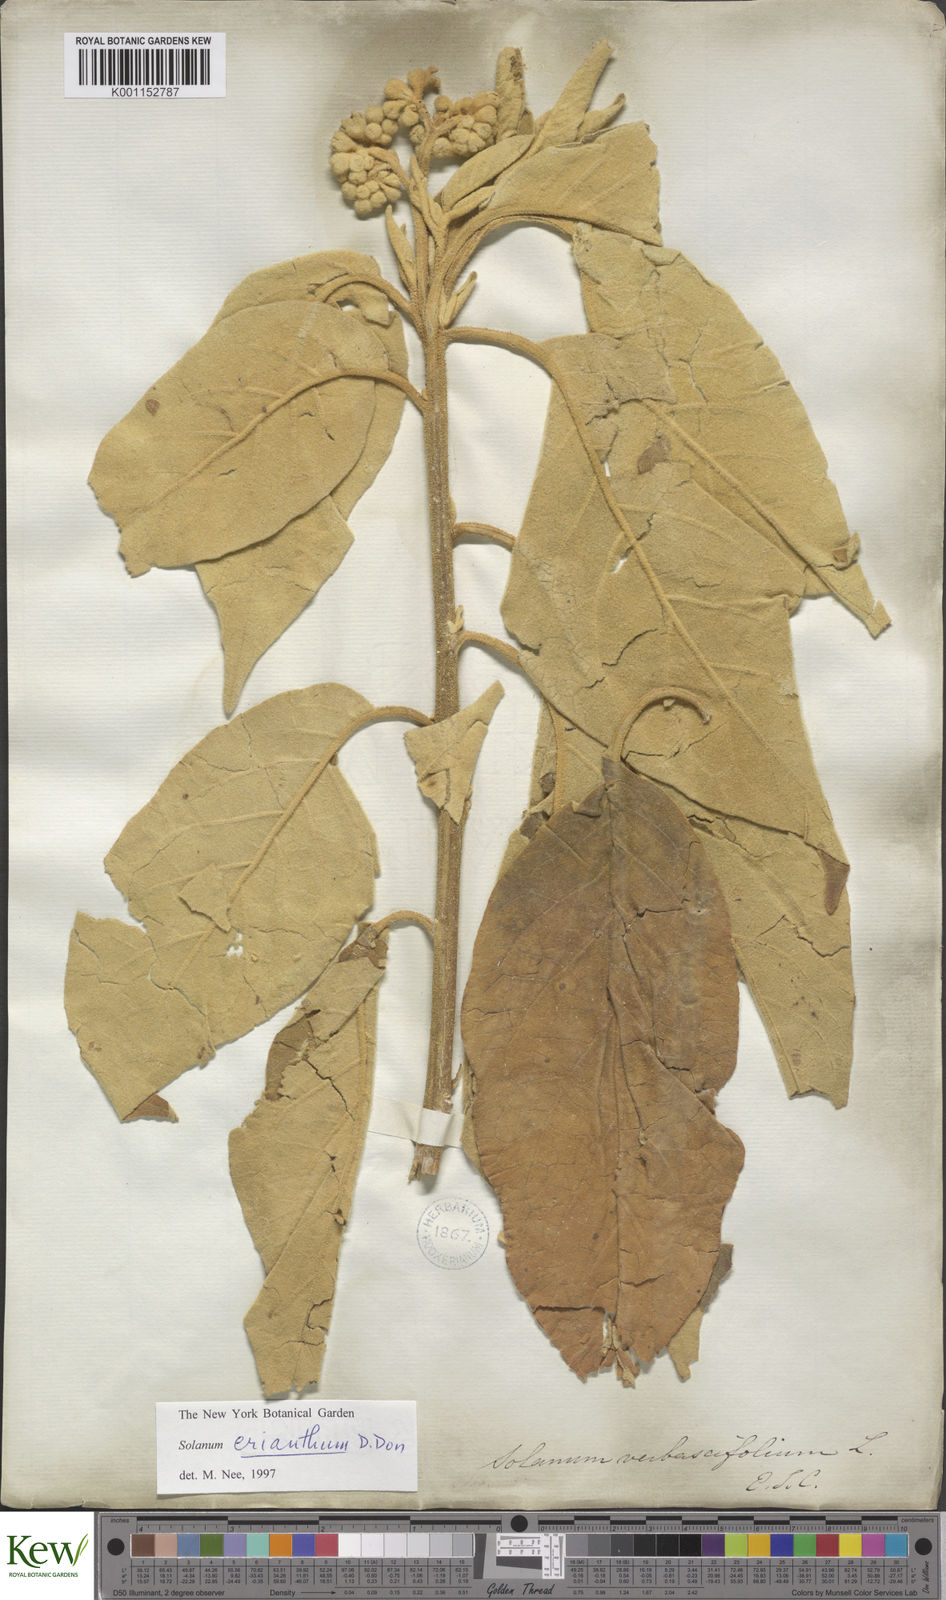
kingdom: Plantae
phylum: Tracheophyta
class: Magnoliopsida
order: Solanales
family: Solanaceae
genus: Solanum
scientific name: Solanum erianthum
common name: Tobacco-tree
